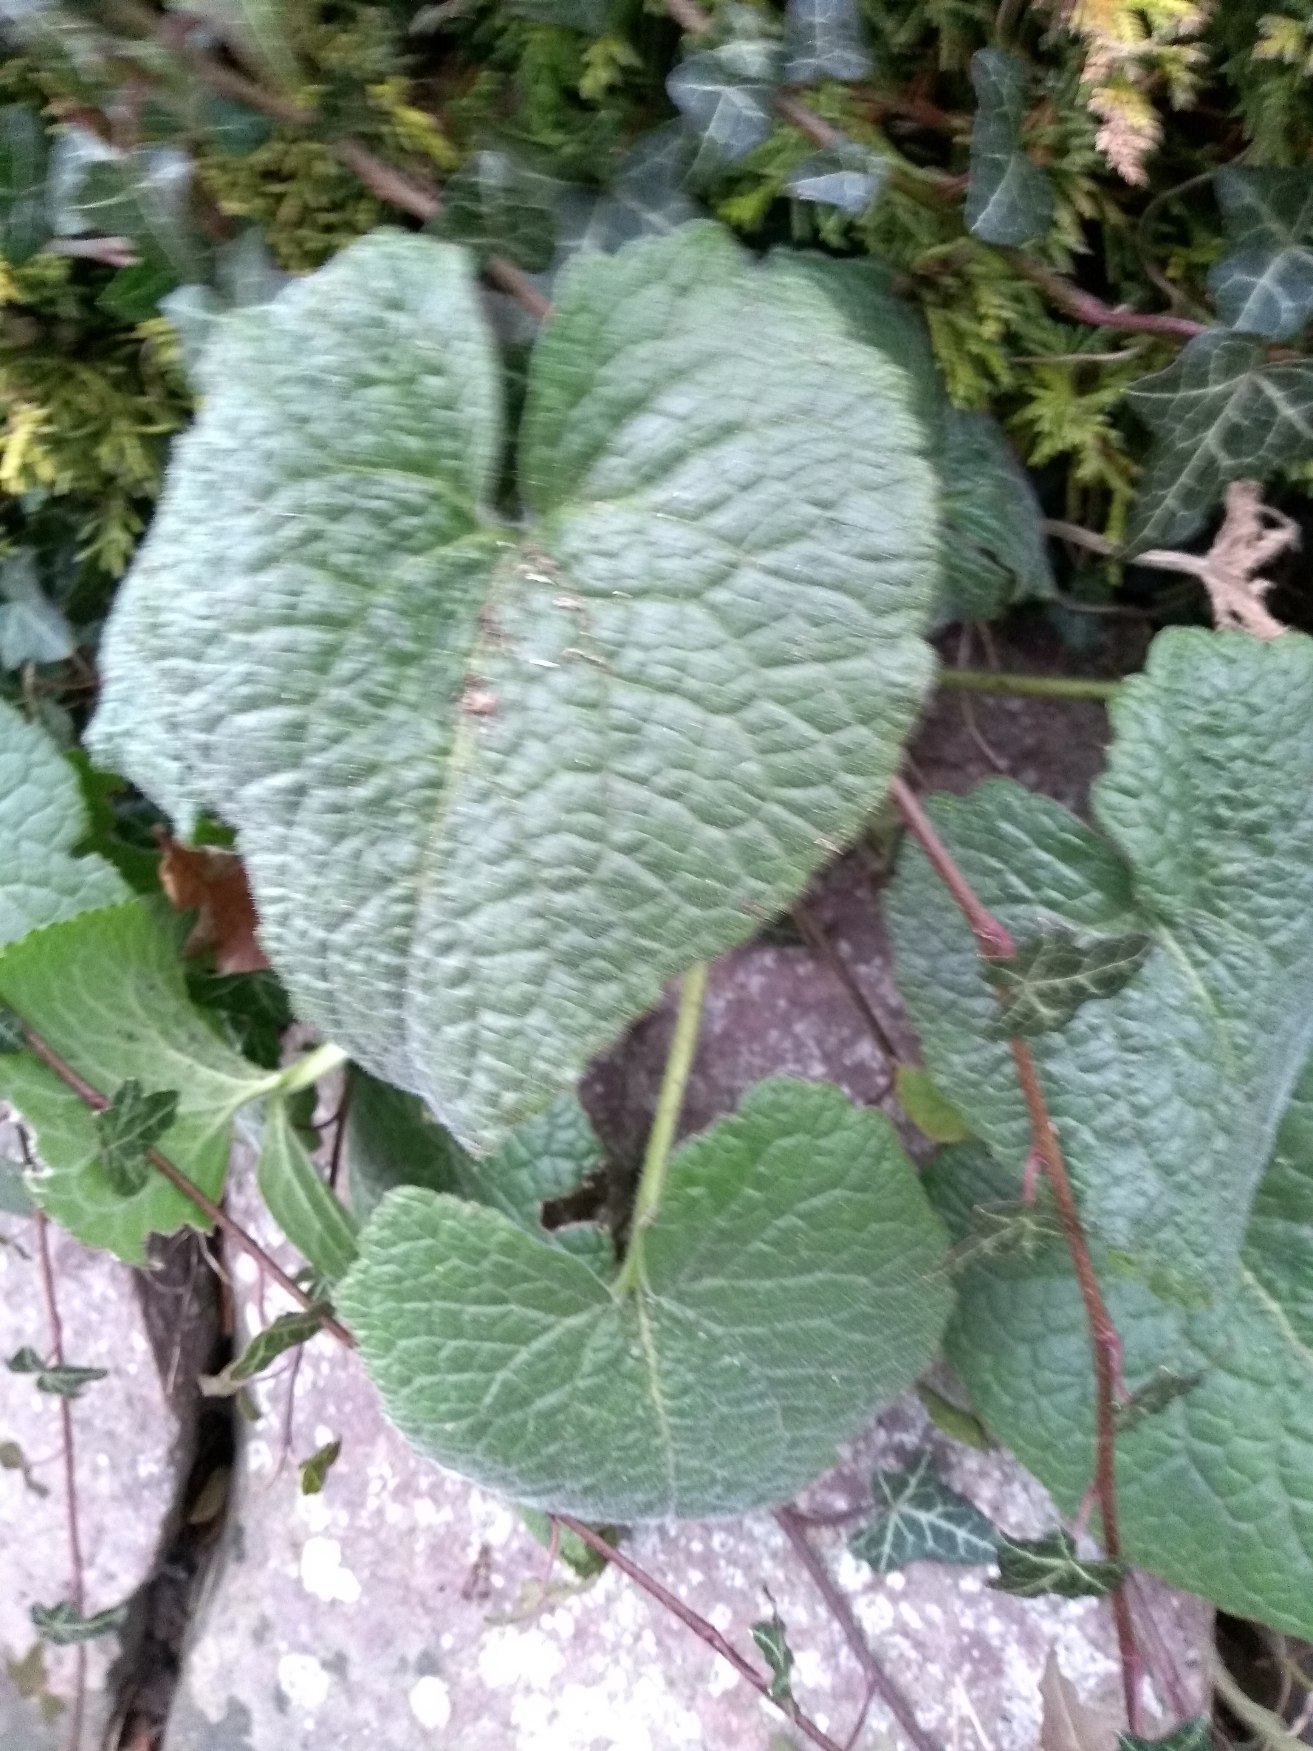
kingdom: Plantae
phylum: Tracheophyta
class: Magnoliopsida
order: Brassicales
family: Brassicaceae
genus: Lunaria
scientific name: Lunaria annua
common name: Judaspenge
